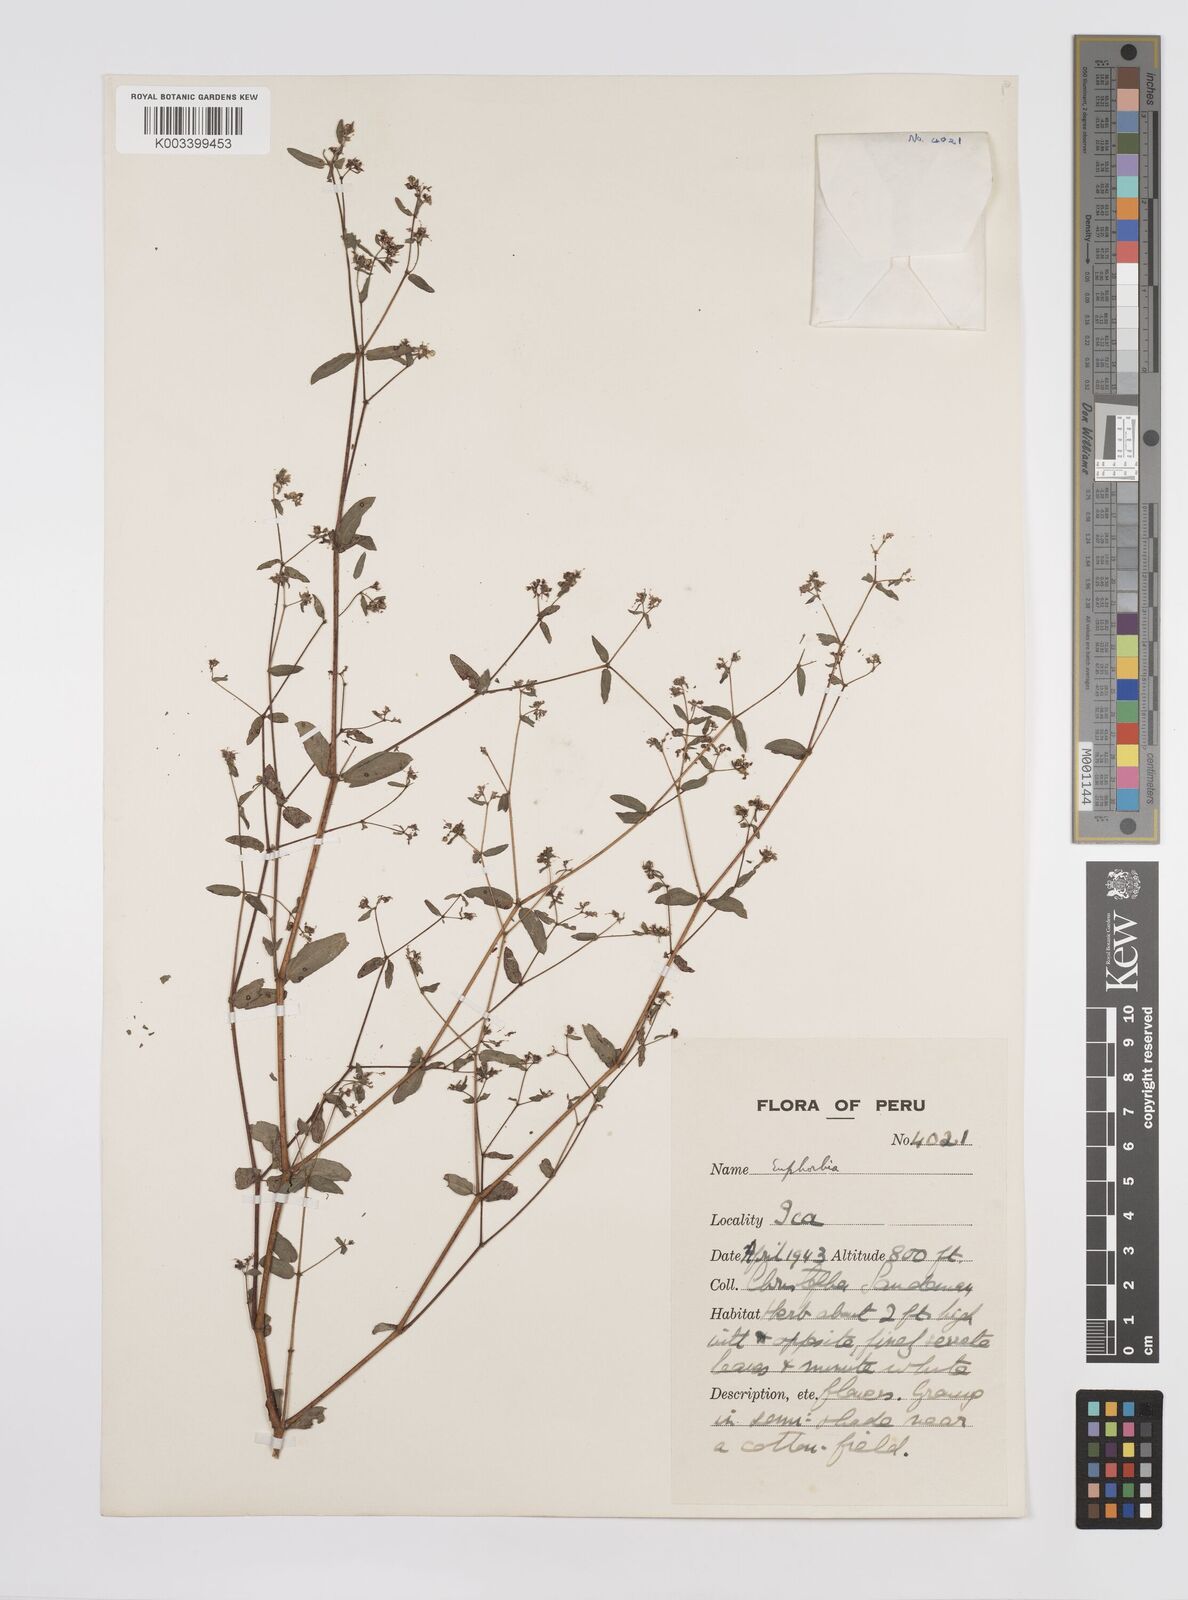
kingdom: Plantae
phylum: Tracheophyta
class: Magnoliopsida
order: Malpighiales
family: Euphorbiaceae
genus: Euphorbia
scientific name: Euphorbia
